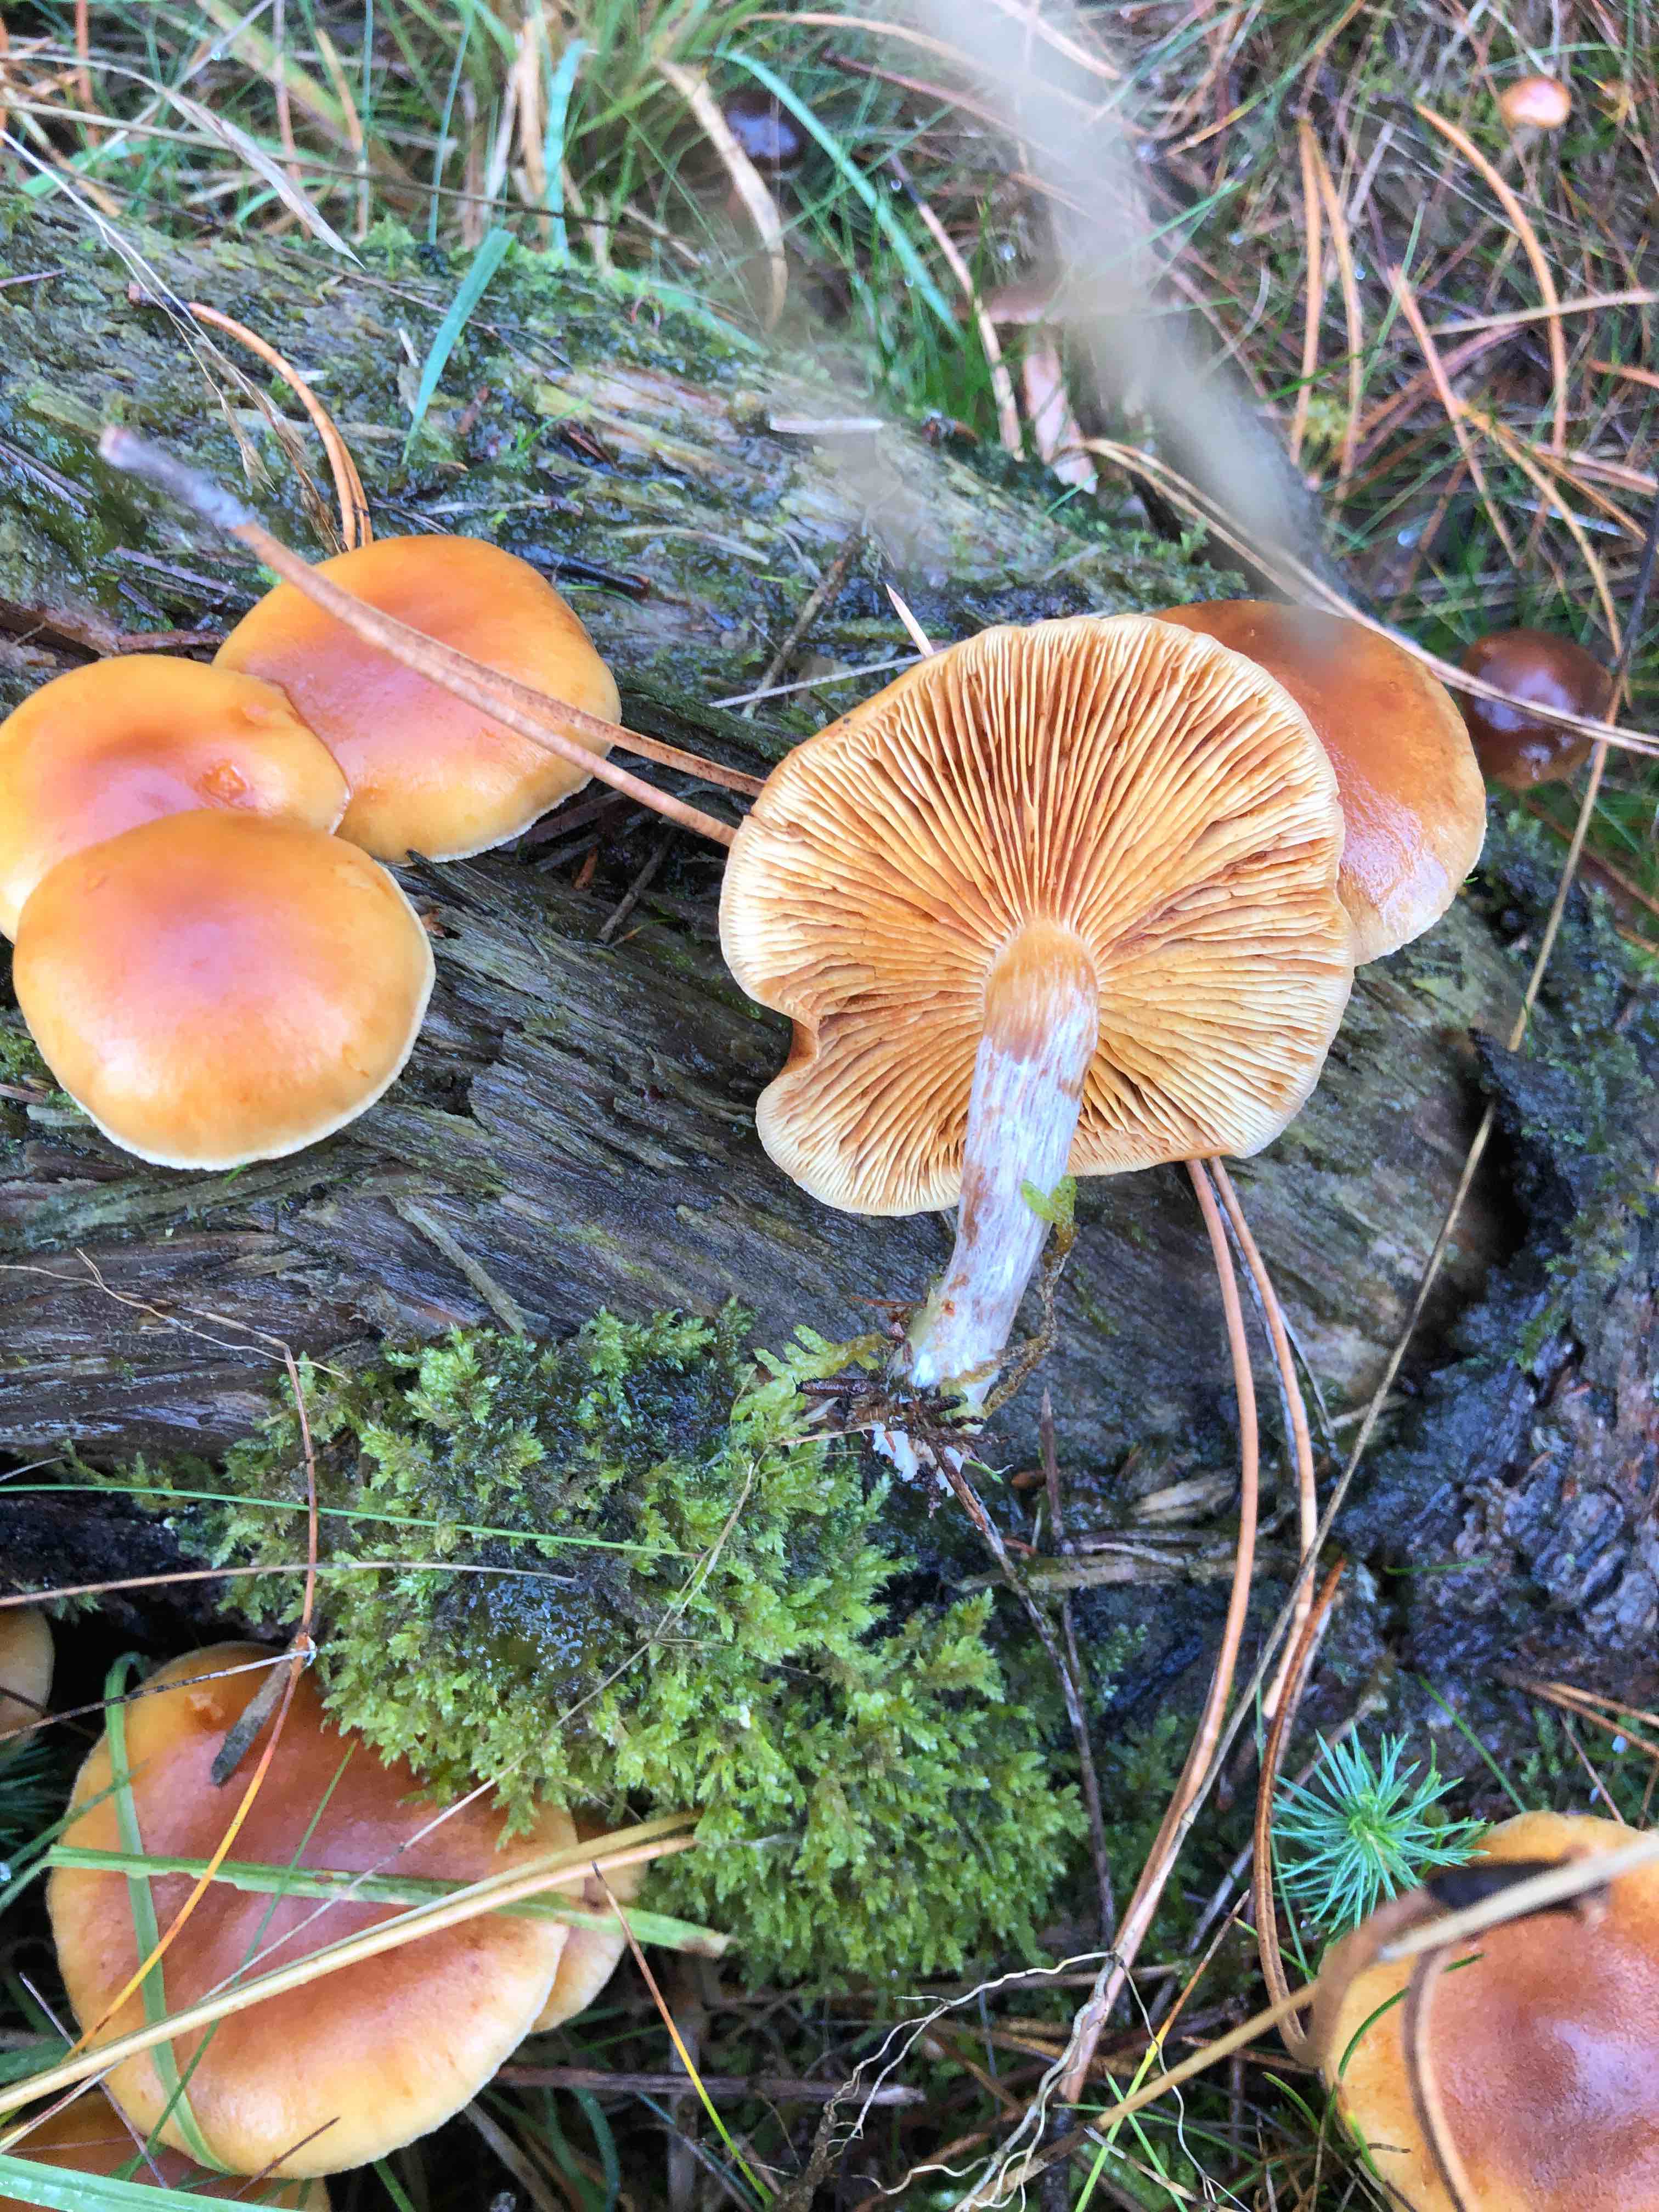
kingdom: Fungi
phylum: Basidiomycota
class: Agaricomycetes
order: Agaricales
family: Hymenogastraceae
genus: Gymnopilus
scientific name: Gymnopilus penetrans
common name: plettet flammehat
